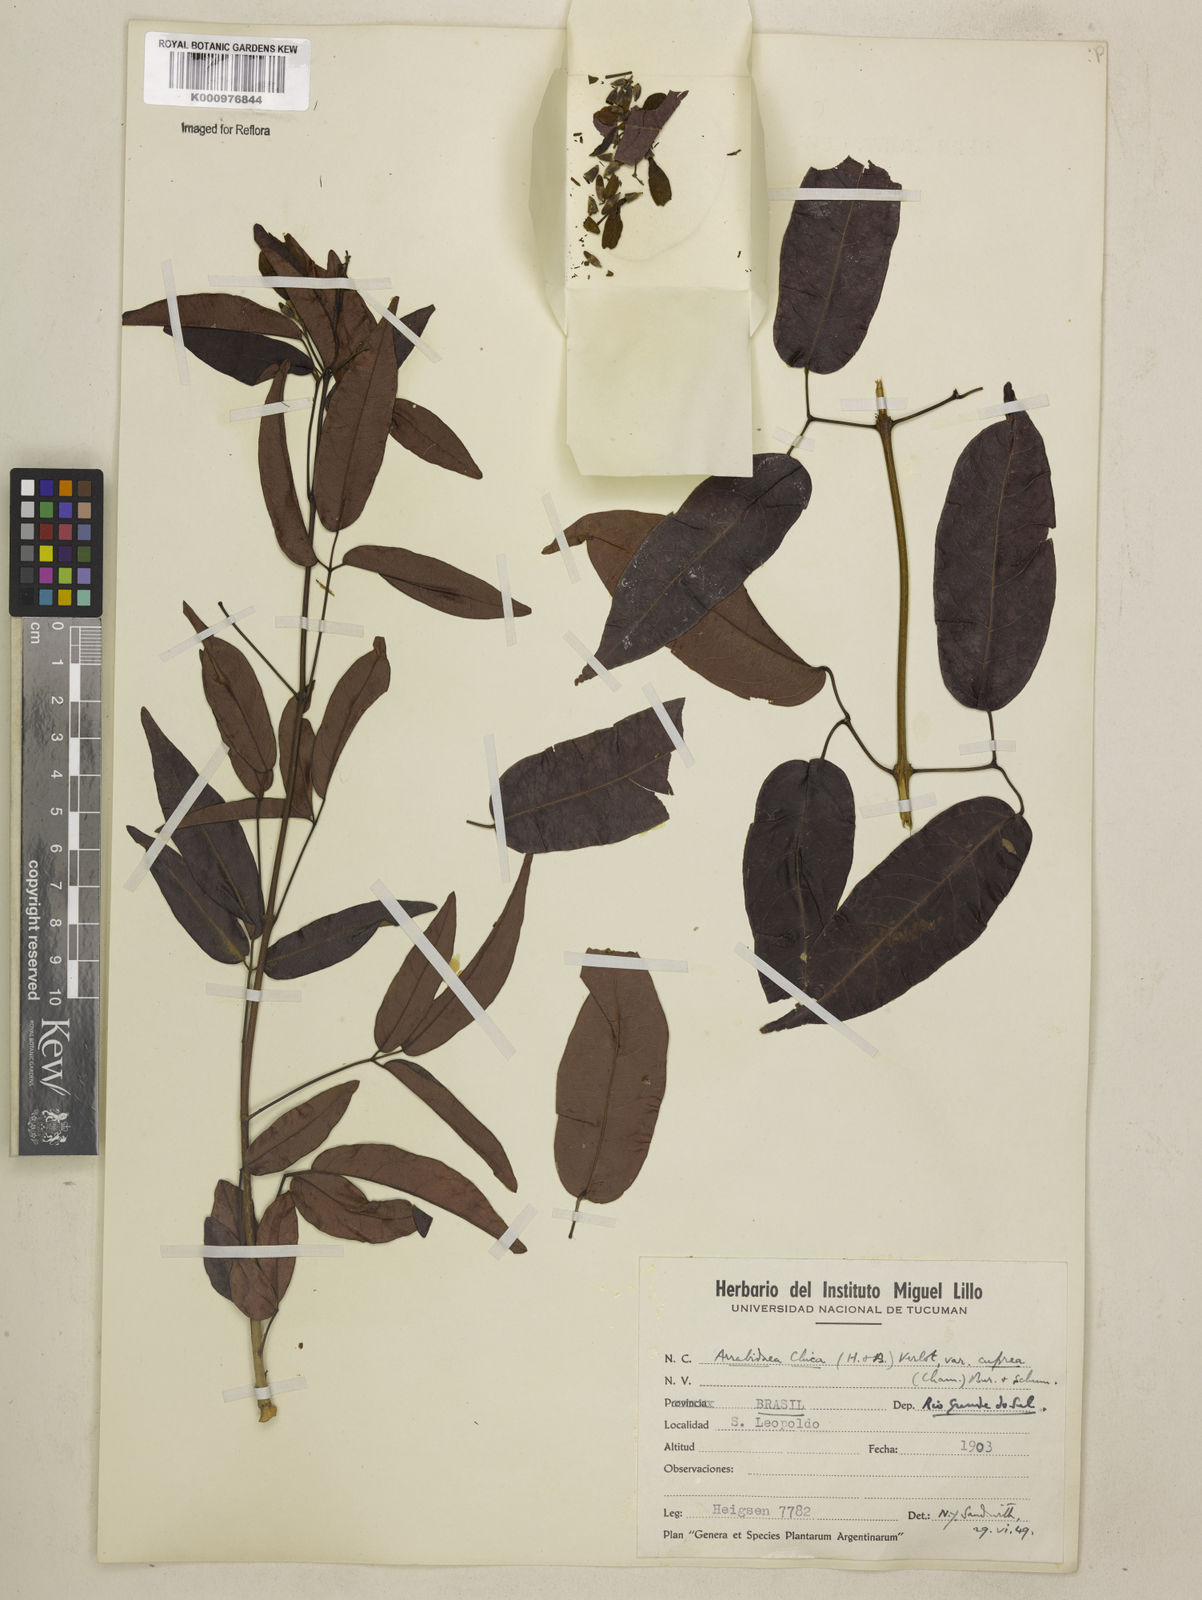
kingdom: Plantae
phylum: Tracheophyta
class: Magnoliopsida
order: Lamiales
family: Bignoniaceae
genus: Fridericia
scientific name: Fridericia chica
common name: Cricketvine
